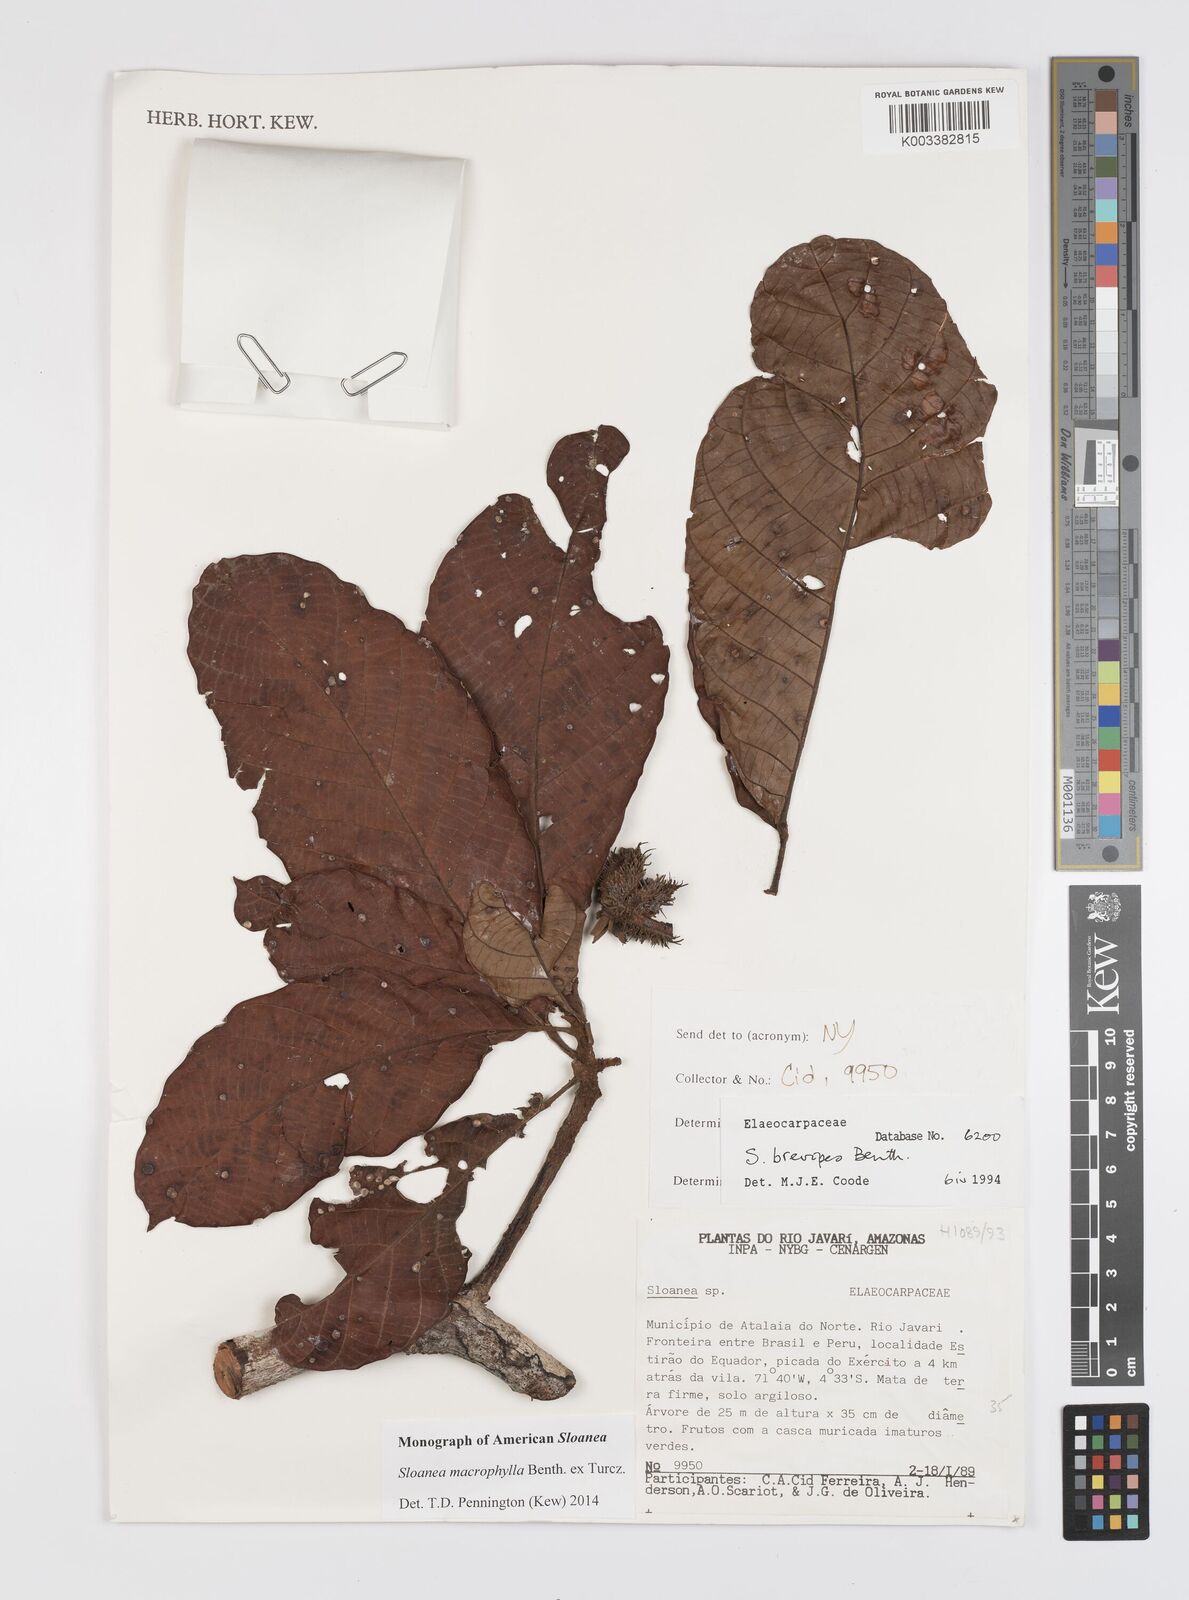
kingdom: Plantae
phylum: Tracheophyta
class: Magnoliopsida
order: Oxalidales
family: Elaeocarpaceae
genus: Sloanea
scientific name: Sloanea macrophylla
